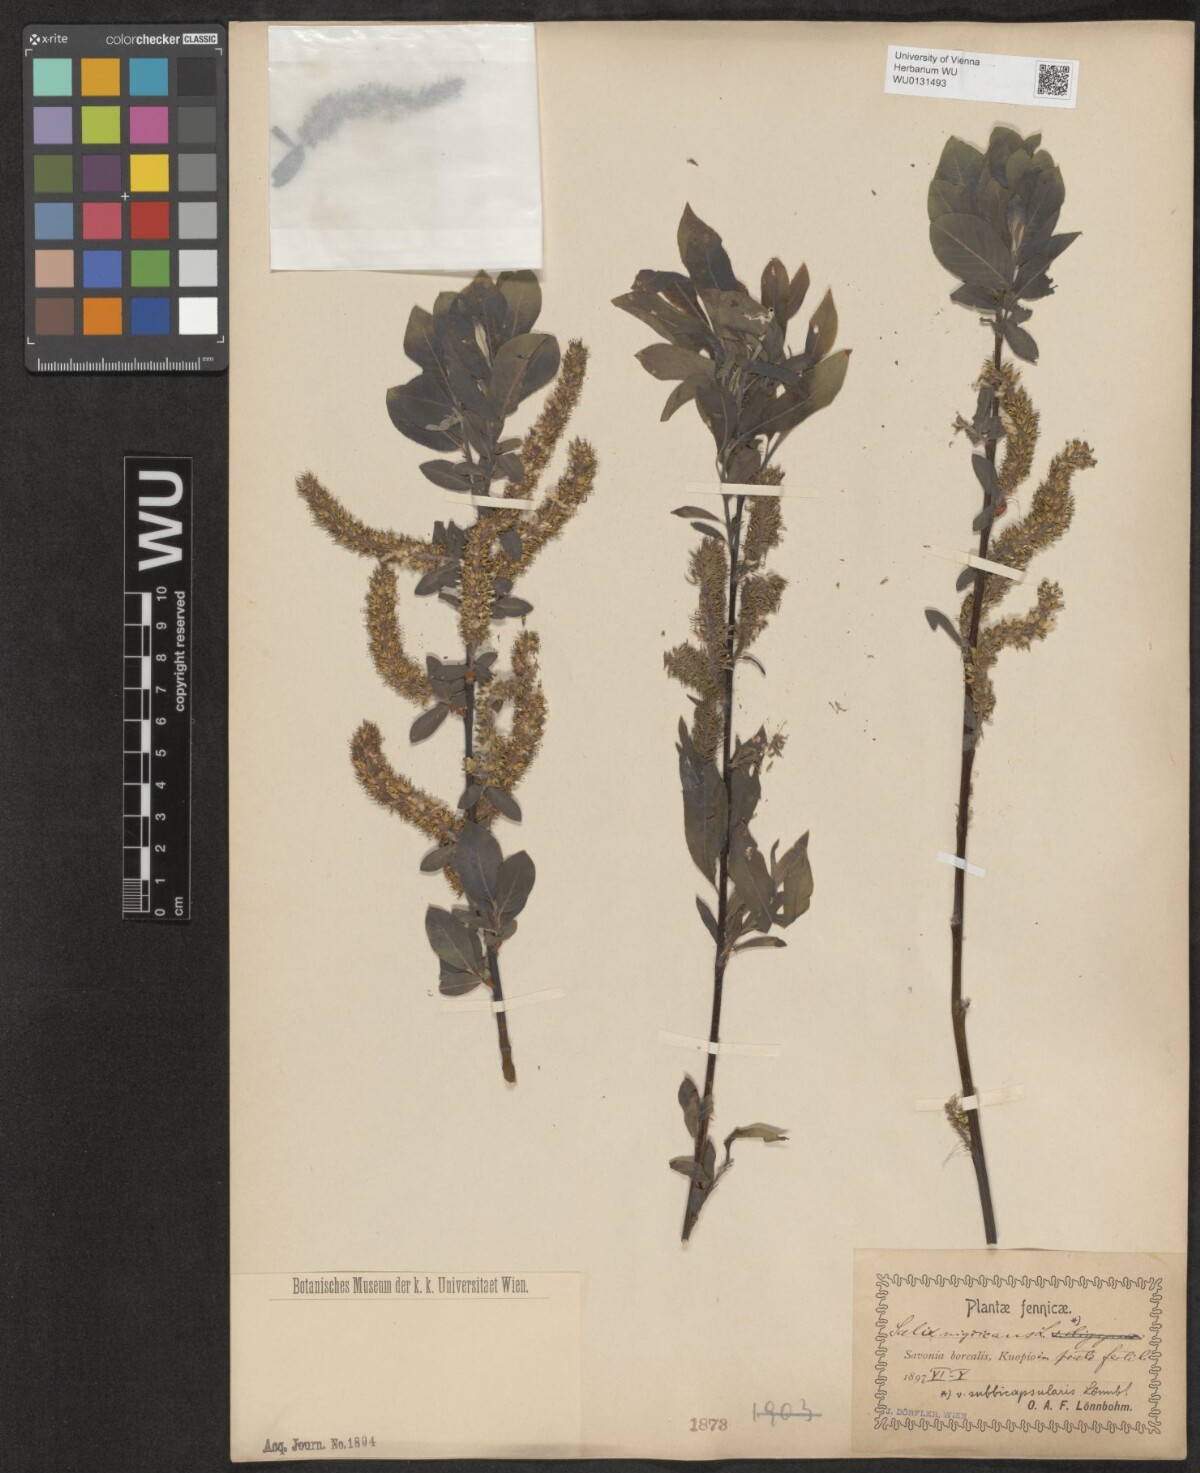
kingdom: Plantae
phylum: Tracheophyta
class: Magnoliopsida
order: Malpighiales
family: Salicaceae
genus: Salix
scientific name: Salix myrsinifolia
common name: Dark-leaved willow
